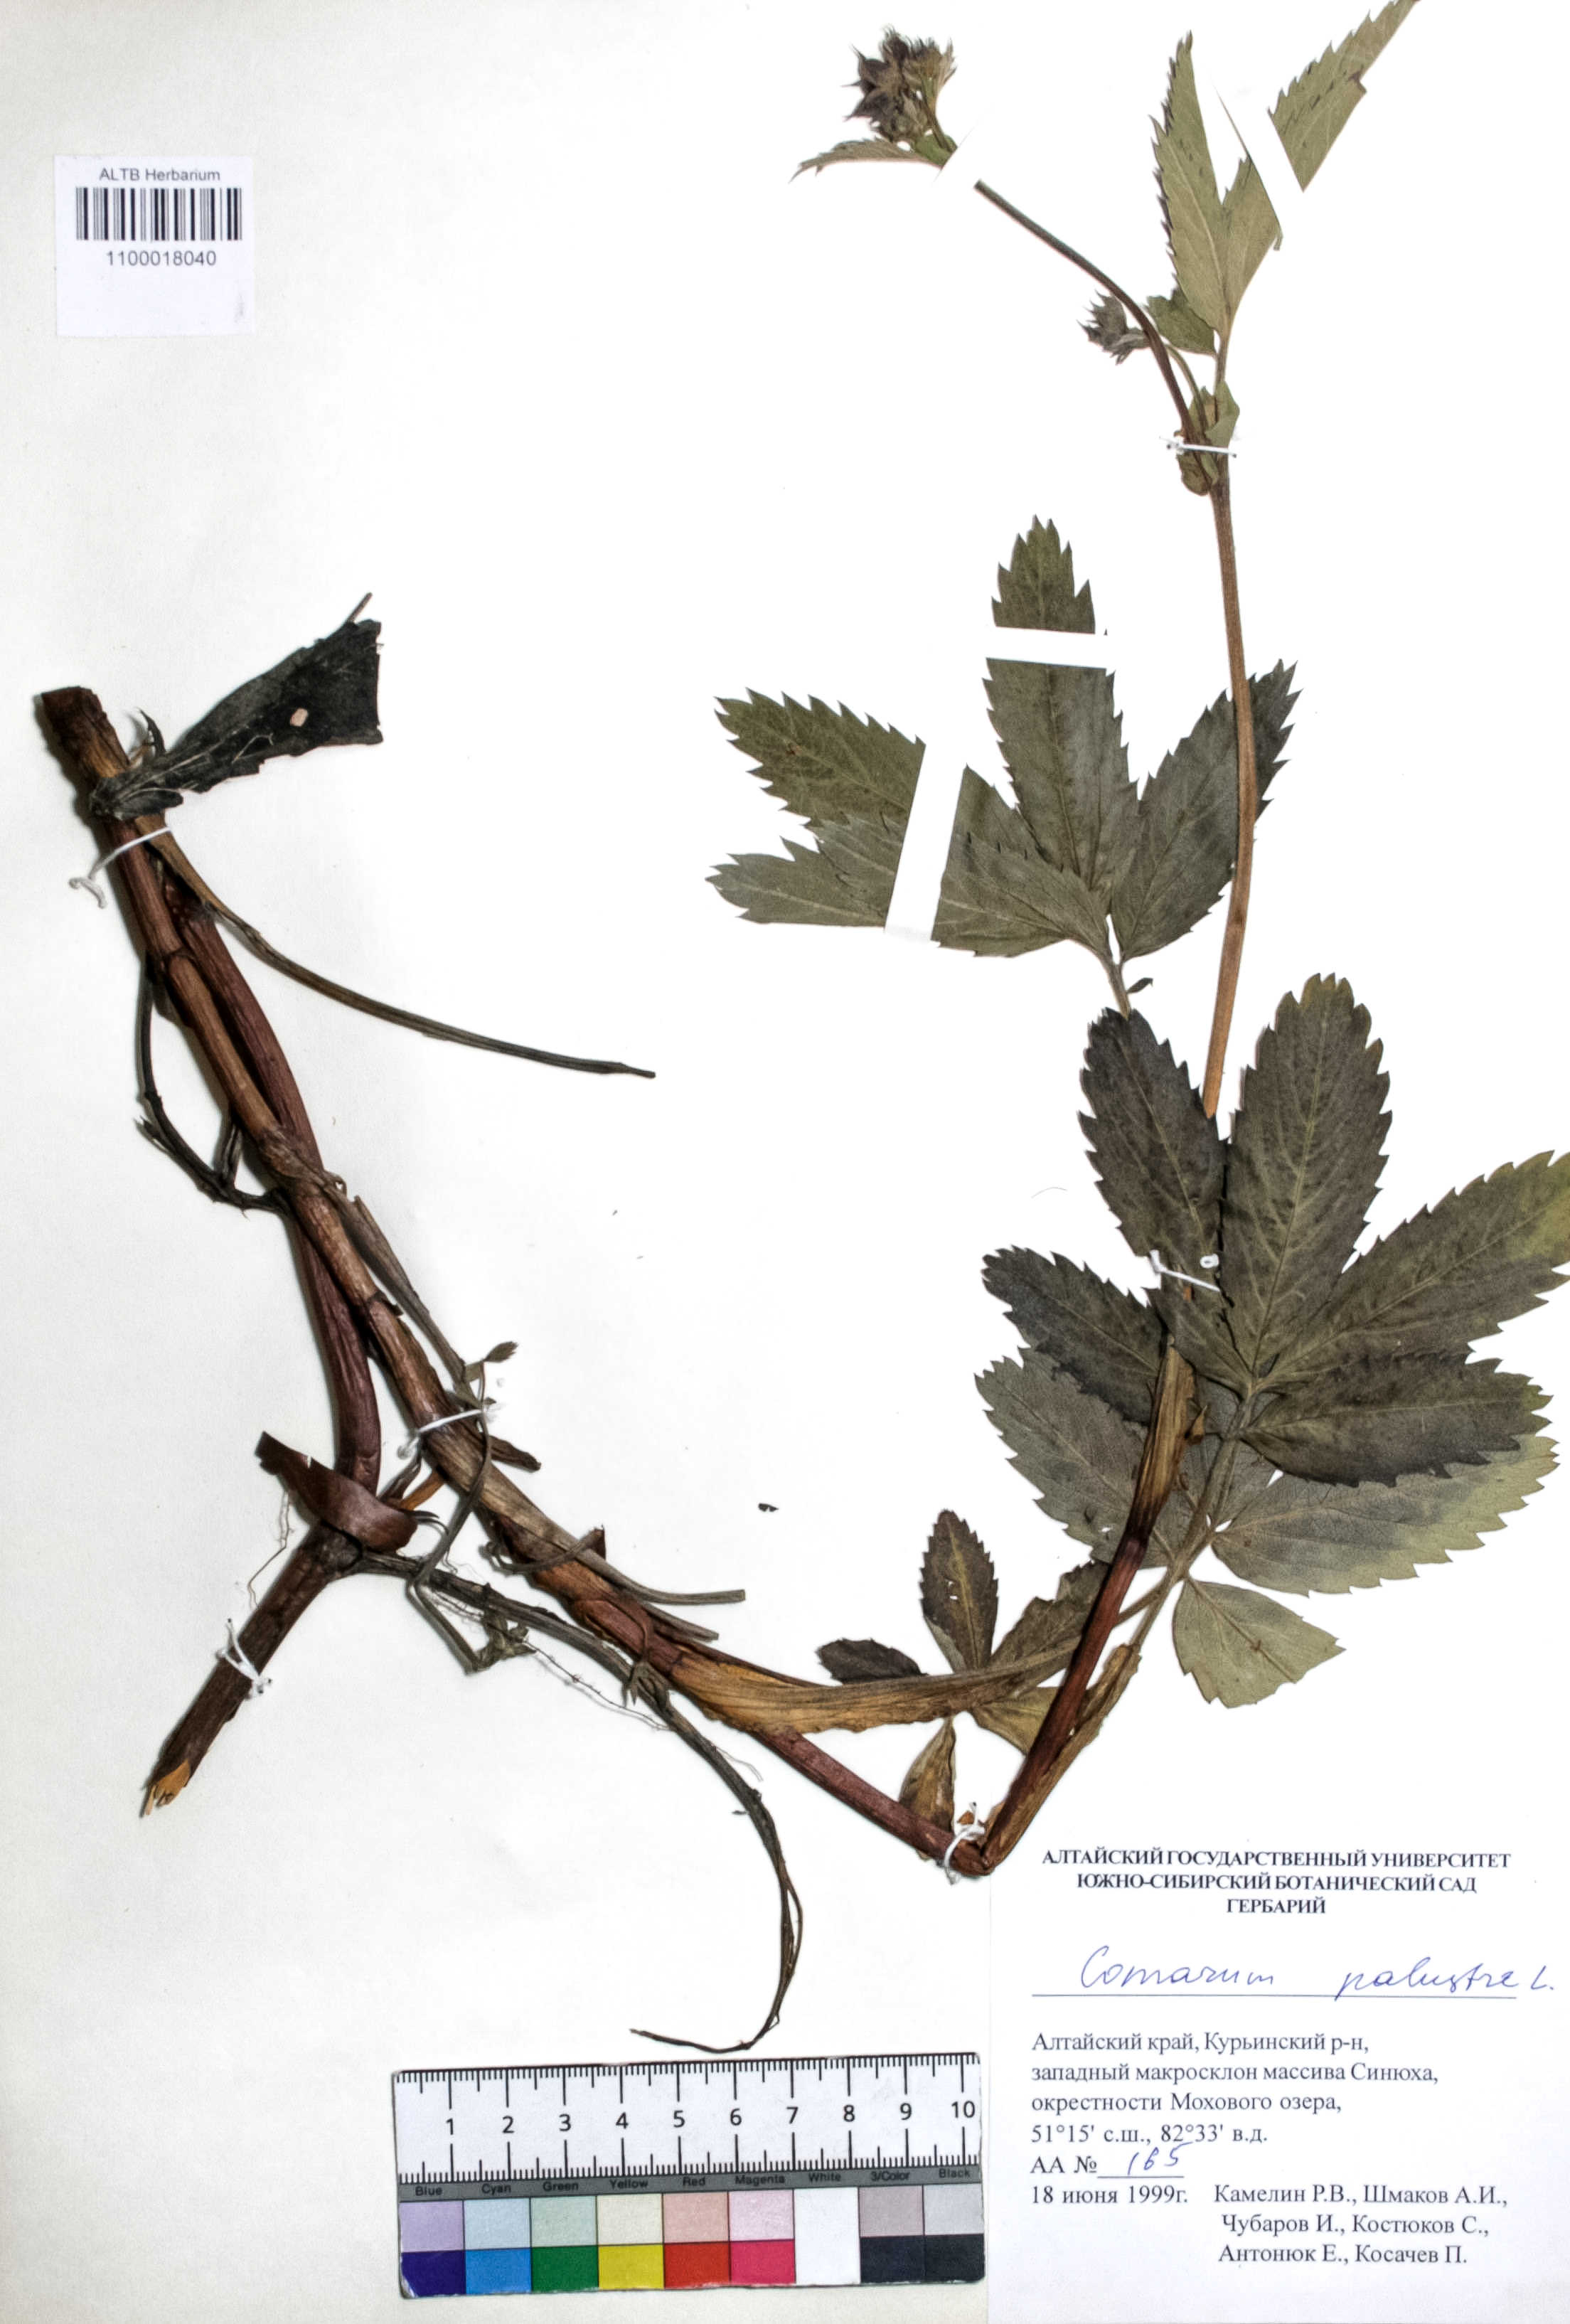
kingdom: Plantae
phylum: Tracheophyta
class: Magnoliopsida
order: Rosales
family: Rosaceae
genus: Comarum
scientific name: Comarum palustre
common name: Marsh cinquefoil
